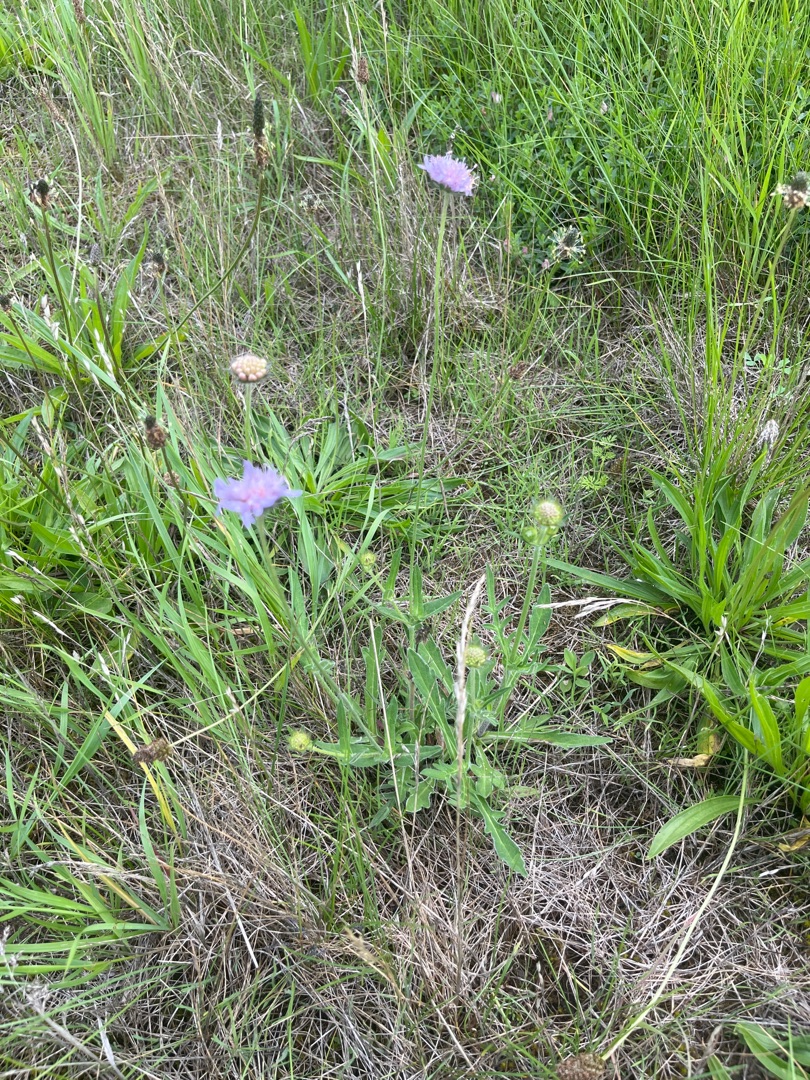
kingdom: Plantae
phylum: Tracheophyta
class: Magnoliopsida
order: Dipsacales
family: Caprifoliaceae
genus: Knautia
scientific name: Knautia arvensis
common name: Blåhat
